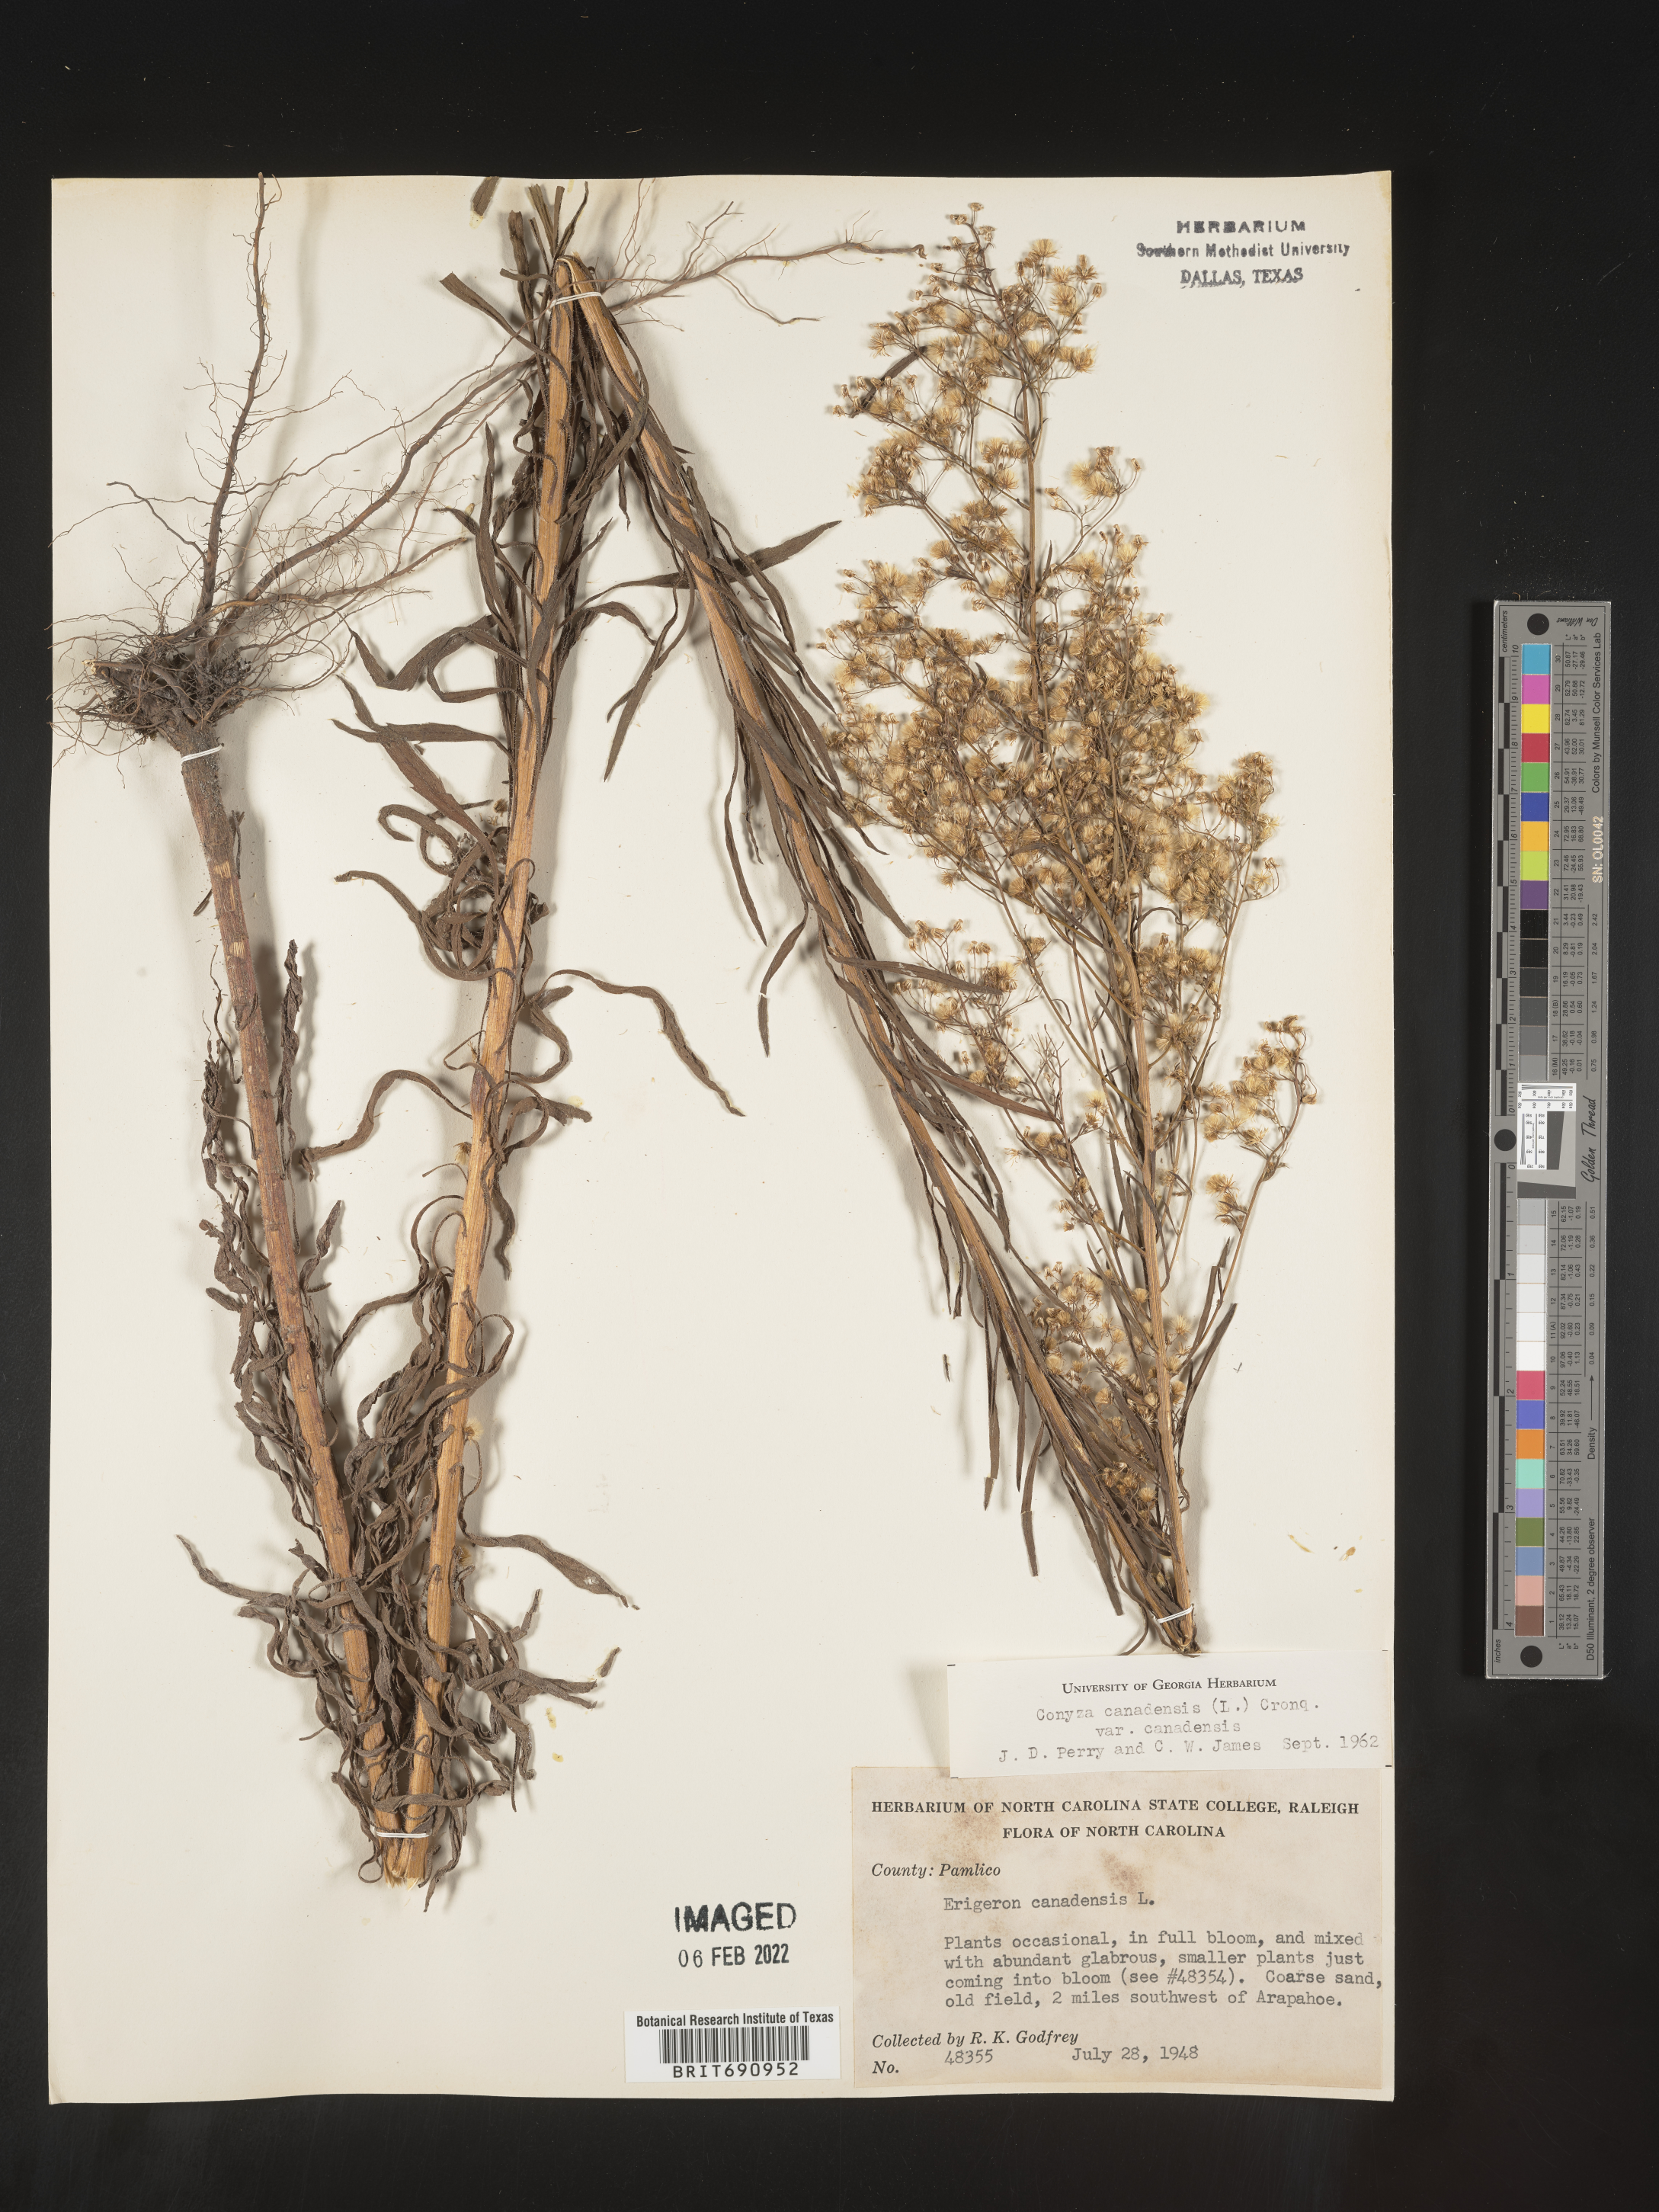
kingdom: Plantae
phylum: Tracheophyta
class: Magnoliopsida
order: Asterales
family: Asteraceae
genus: Erigeron
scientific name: Erigeron canadensis
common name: Canadian fleabane
